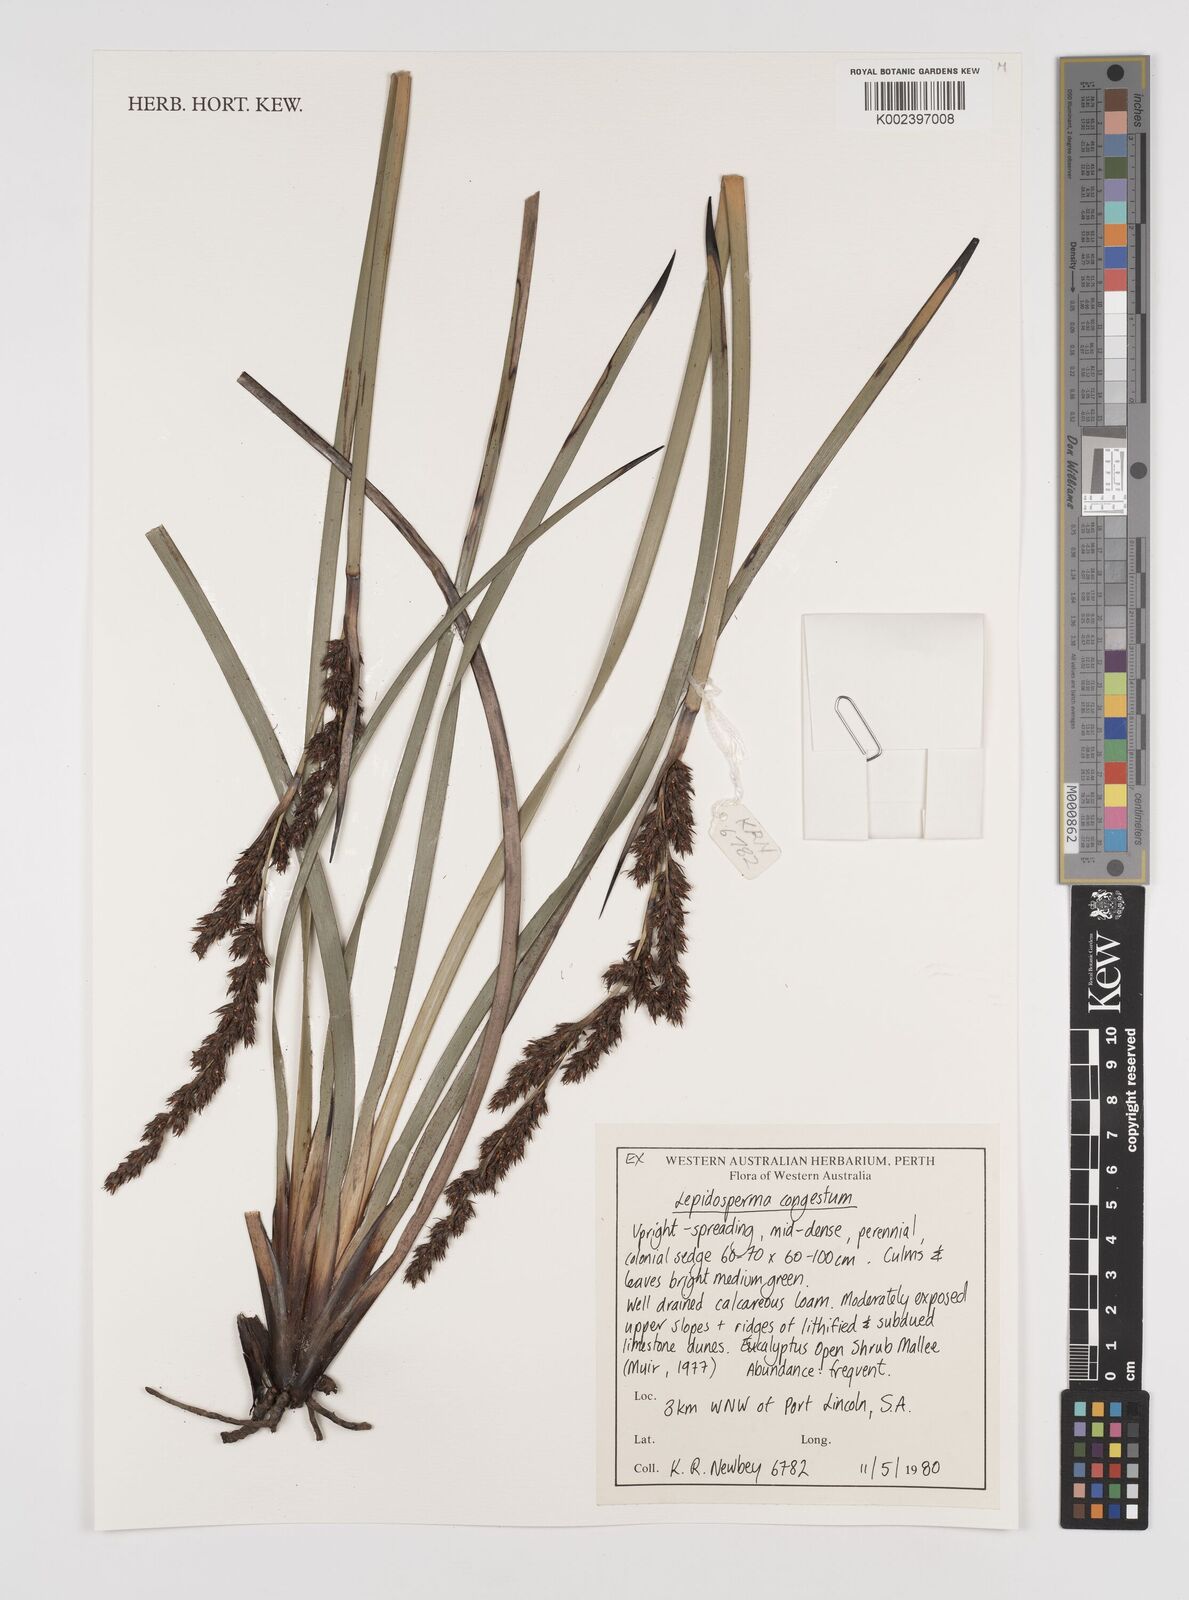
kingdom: Plantae
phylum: Tracheophyta
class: Liliopsida
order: Poales
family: Cyperaceae
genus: Lepidosperma
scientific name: Lepidosperma congestum
